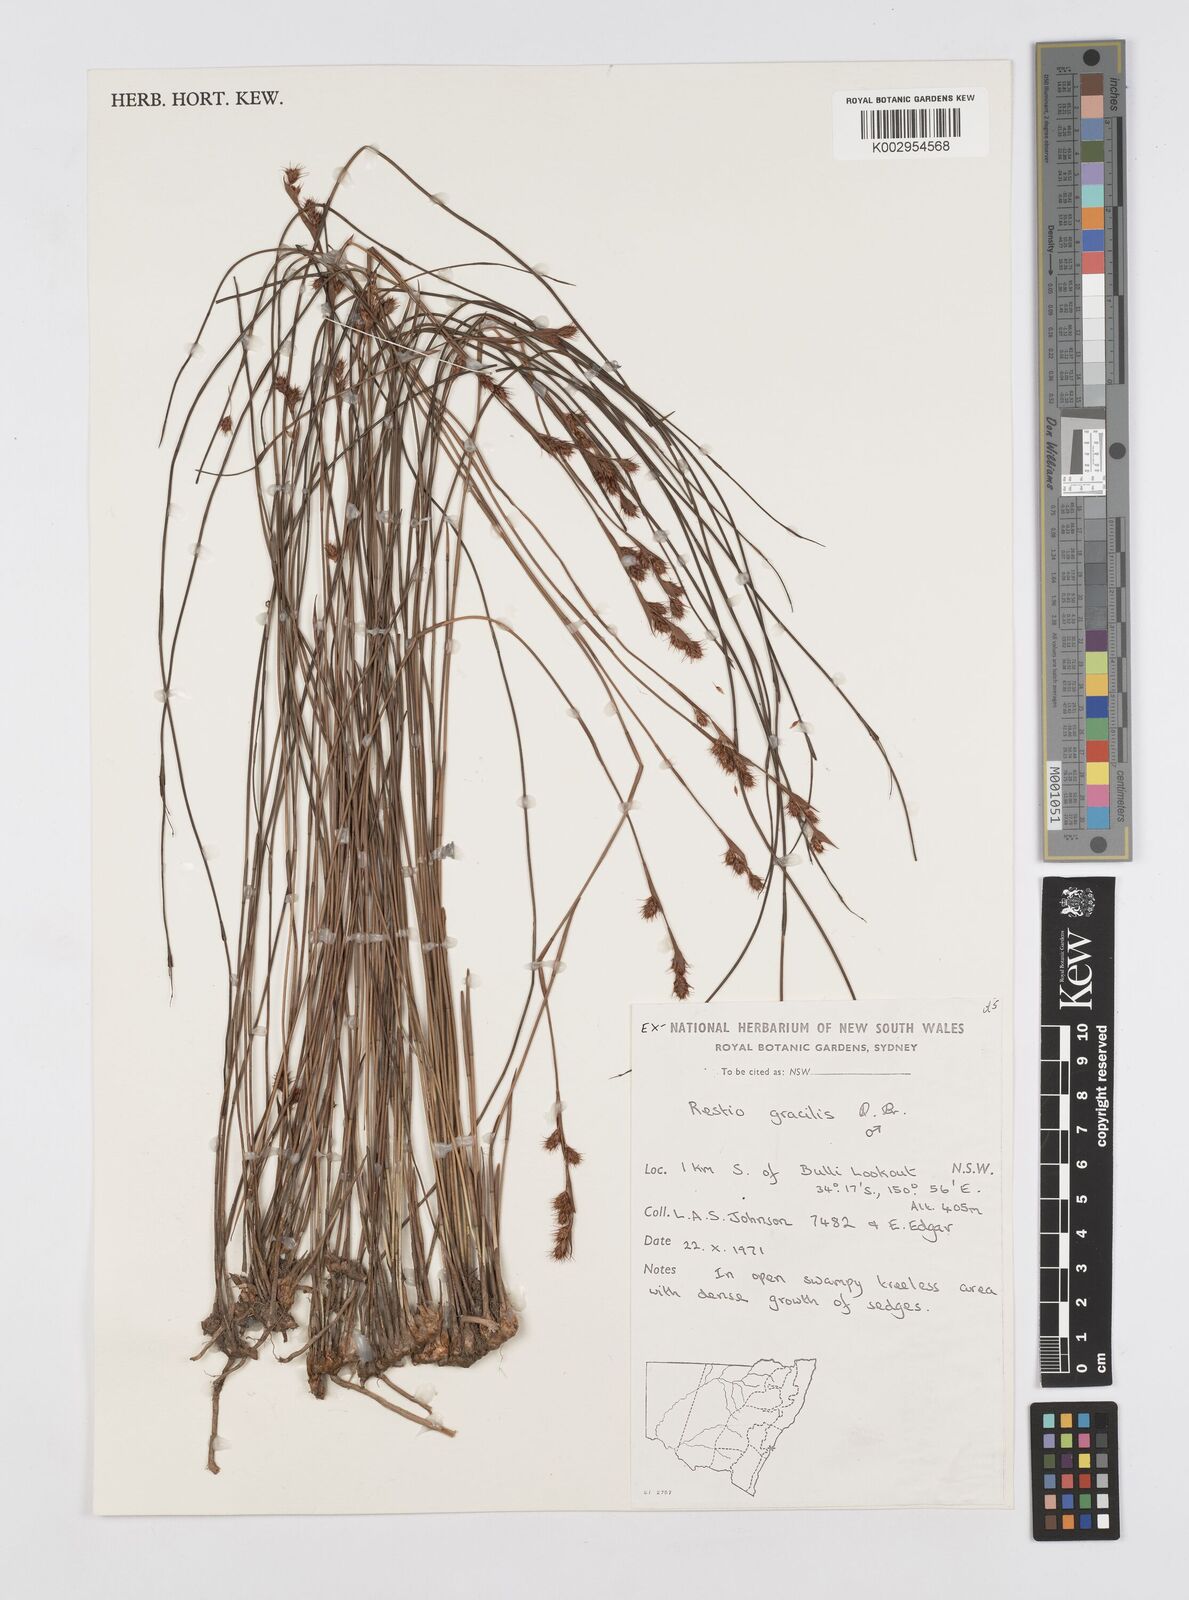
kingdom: Plantae
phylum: Tracheophyta
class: Liliopsida
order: Poales
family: Restionaceae
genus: Baloskion
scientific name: Baloskion gracile
